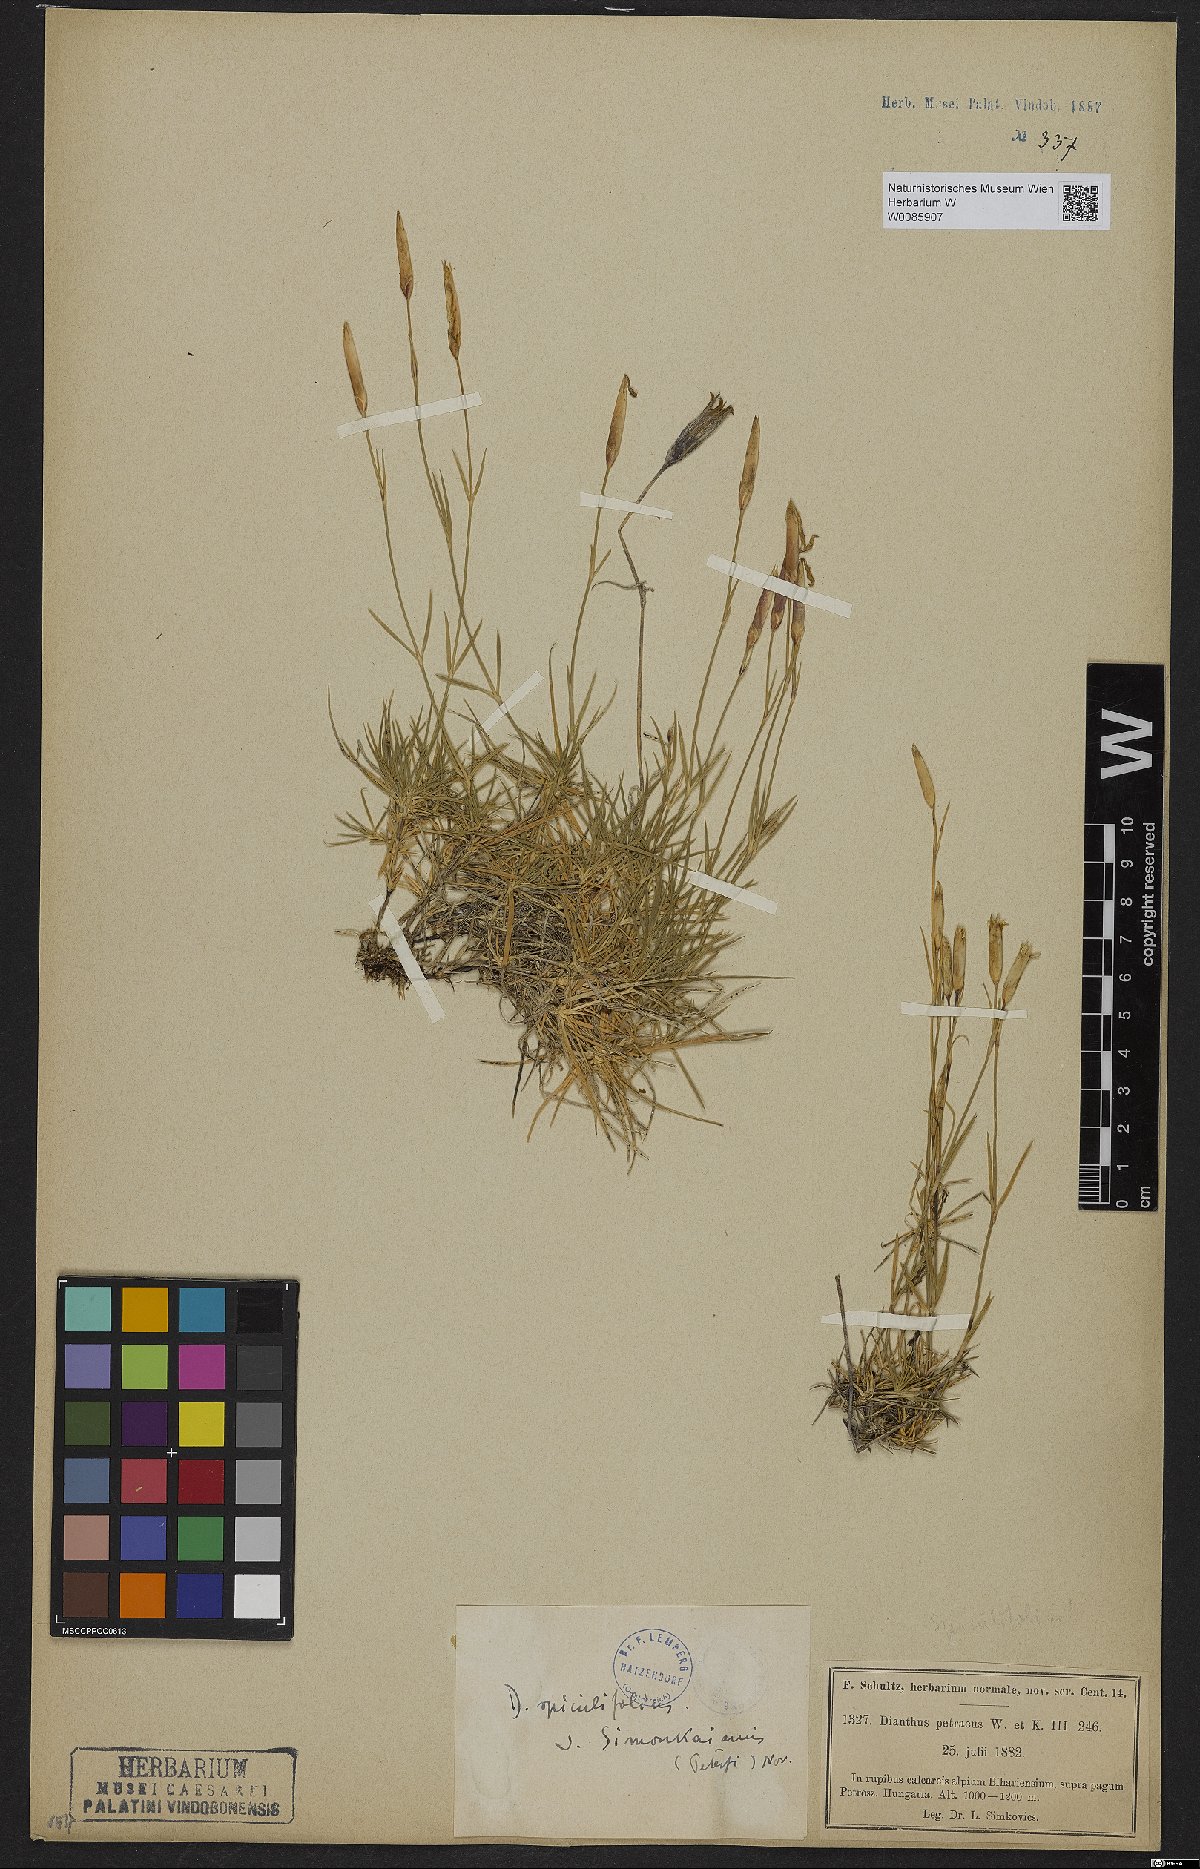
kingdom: Plantae
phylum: Tracheophyta
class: Magnoliopsida
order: Caryophyllales
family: Caryophyllaceae
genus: Dianthus
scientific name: Dianthus spiculifolius
